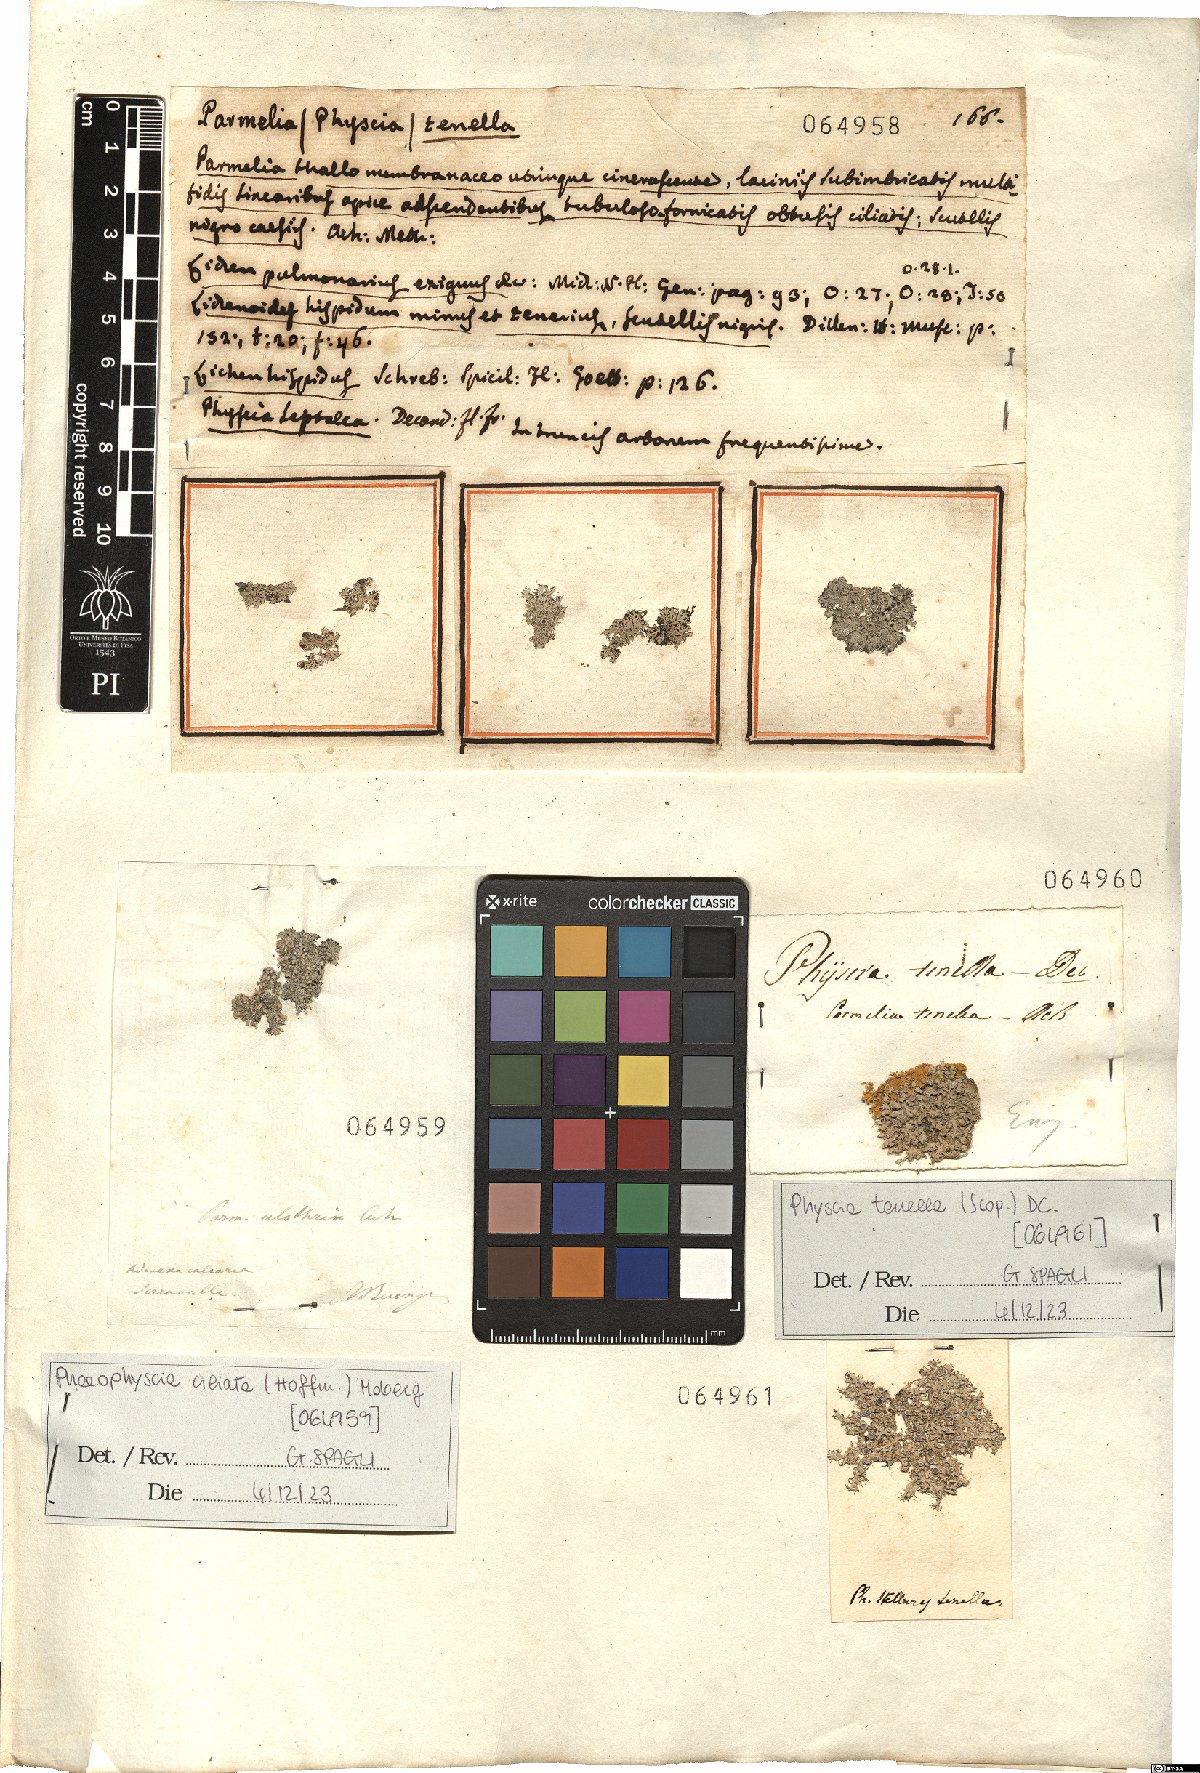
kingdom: Fungi
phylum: Ascomycota
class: Lecanoromycetes
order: Caliciales
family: Physciaceae
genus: Physcia
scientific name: Physcia tenella
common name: Fringed rosette lichen
